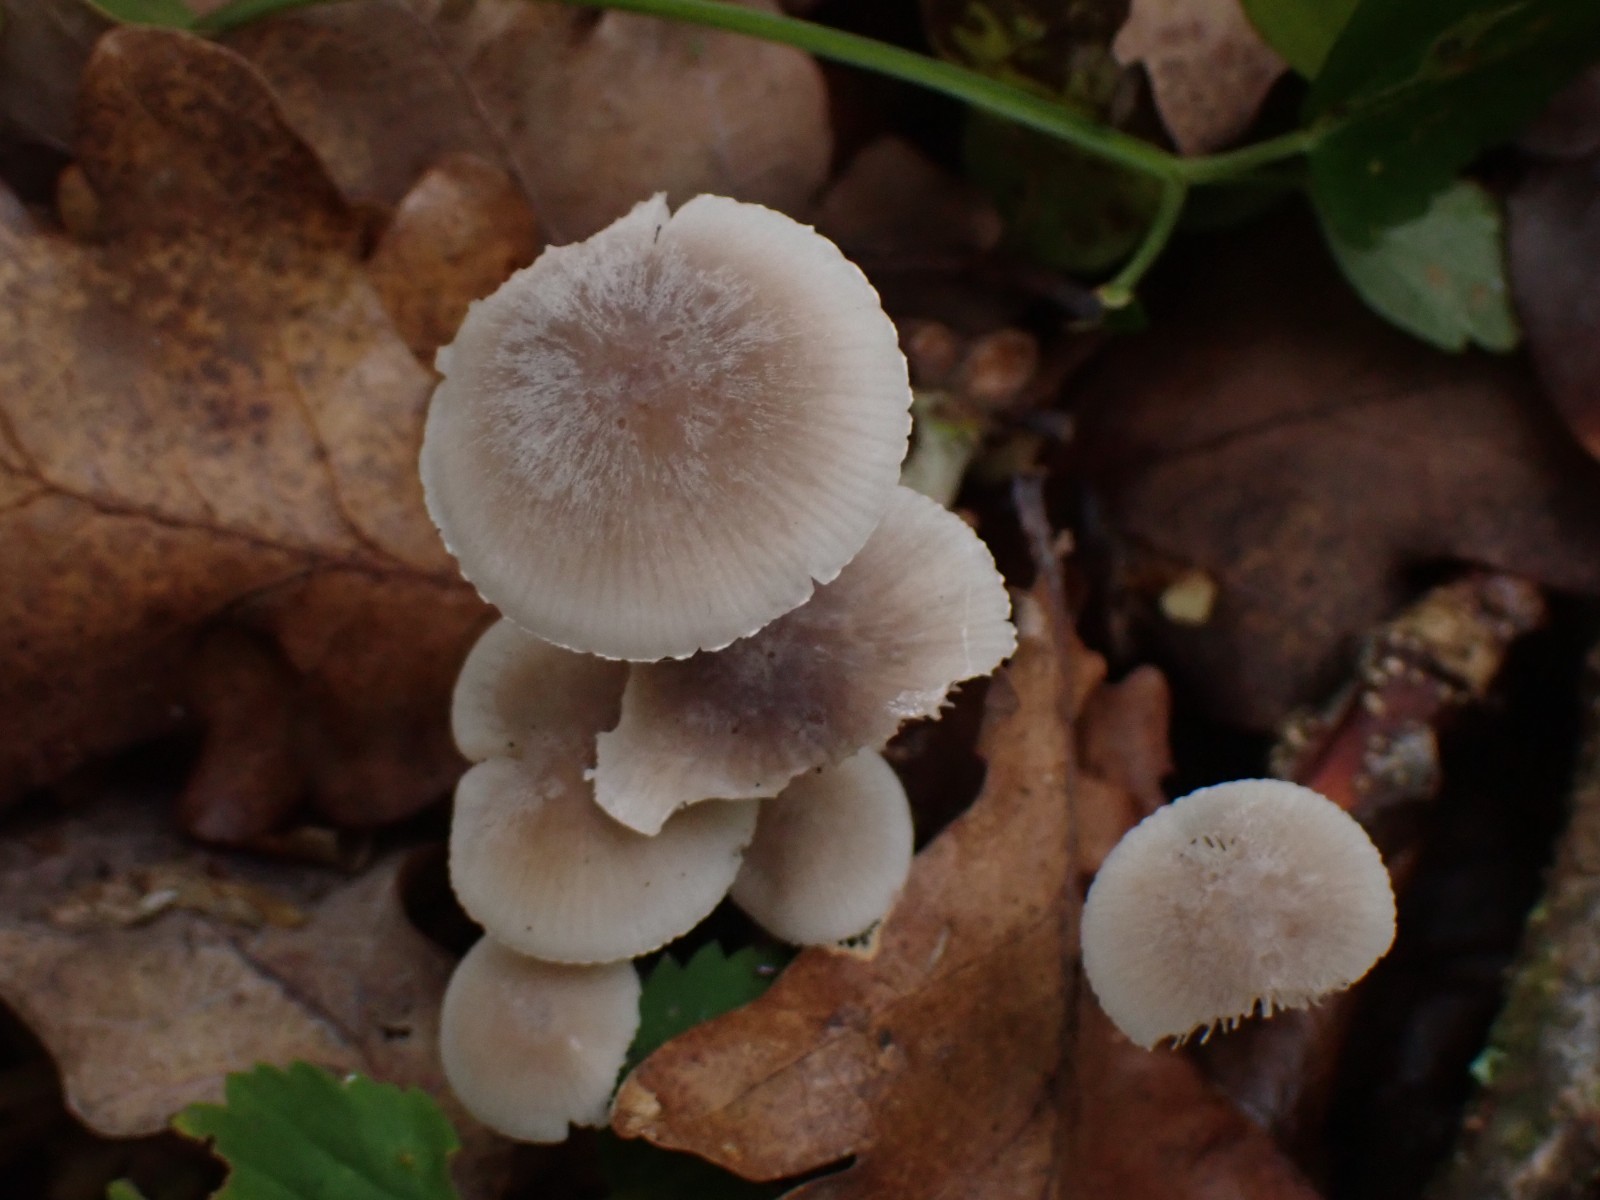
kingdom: Fungi
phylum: Basidiomycota
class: Agaricomycetes
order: Agaricales
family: Mycenaceae
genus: Mycena
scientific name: Mycena
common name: huesvamp
